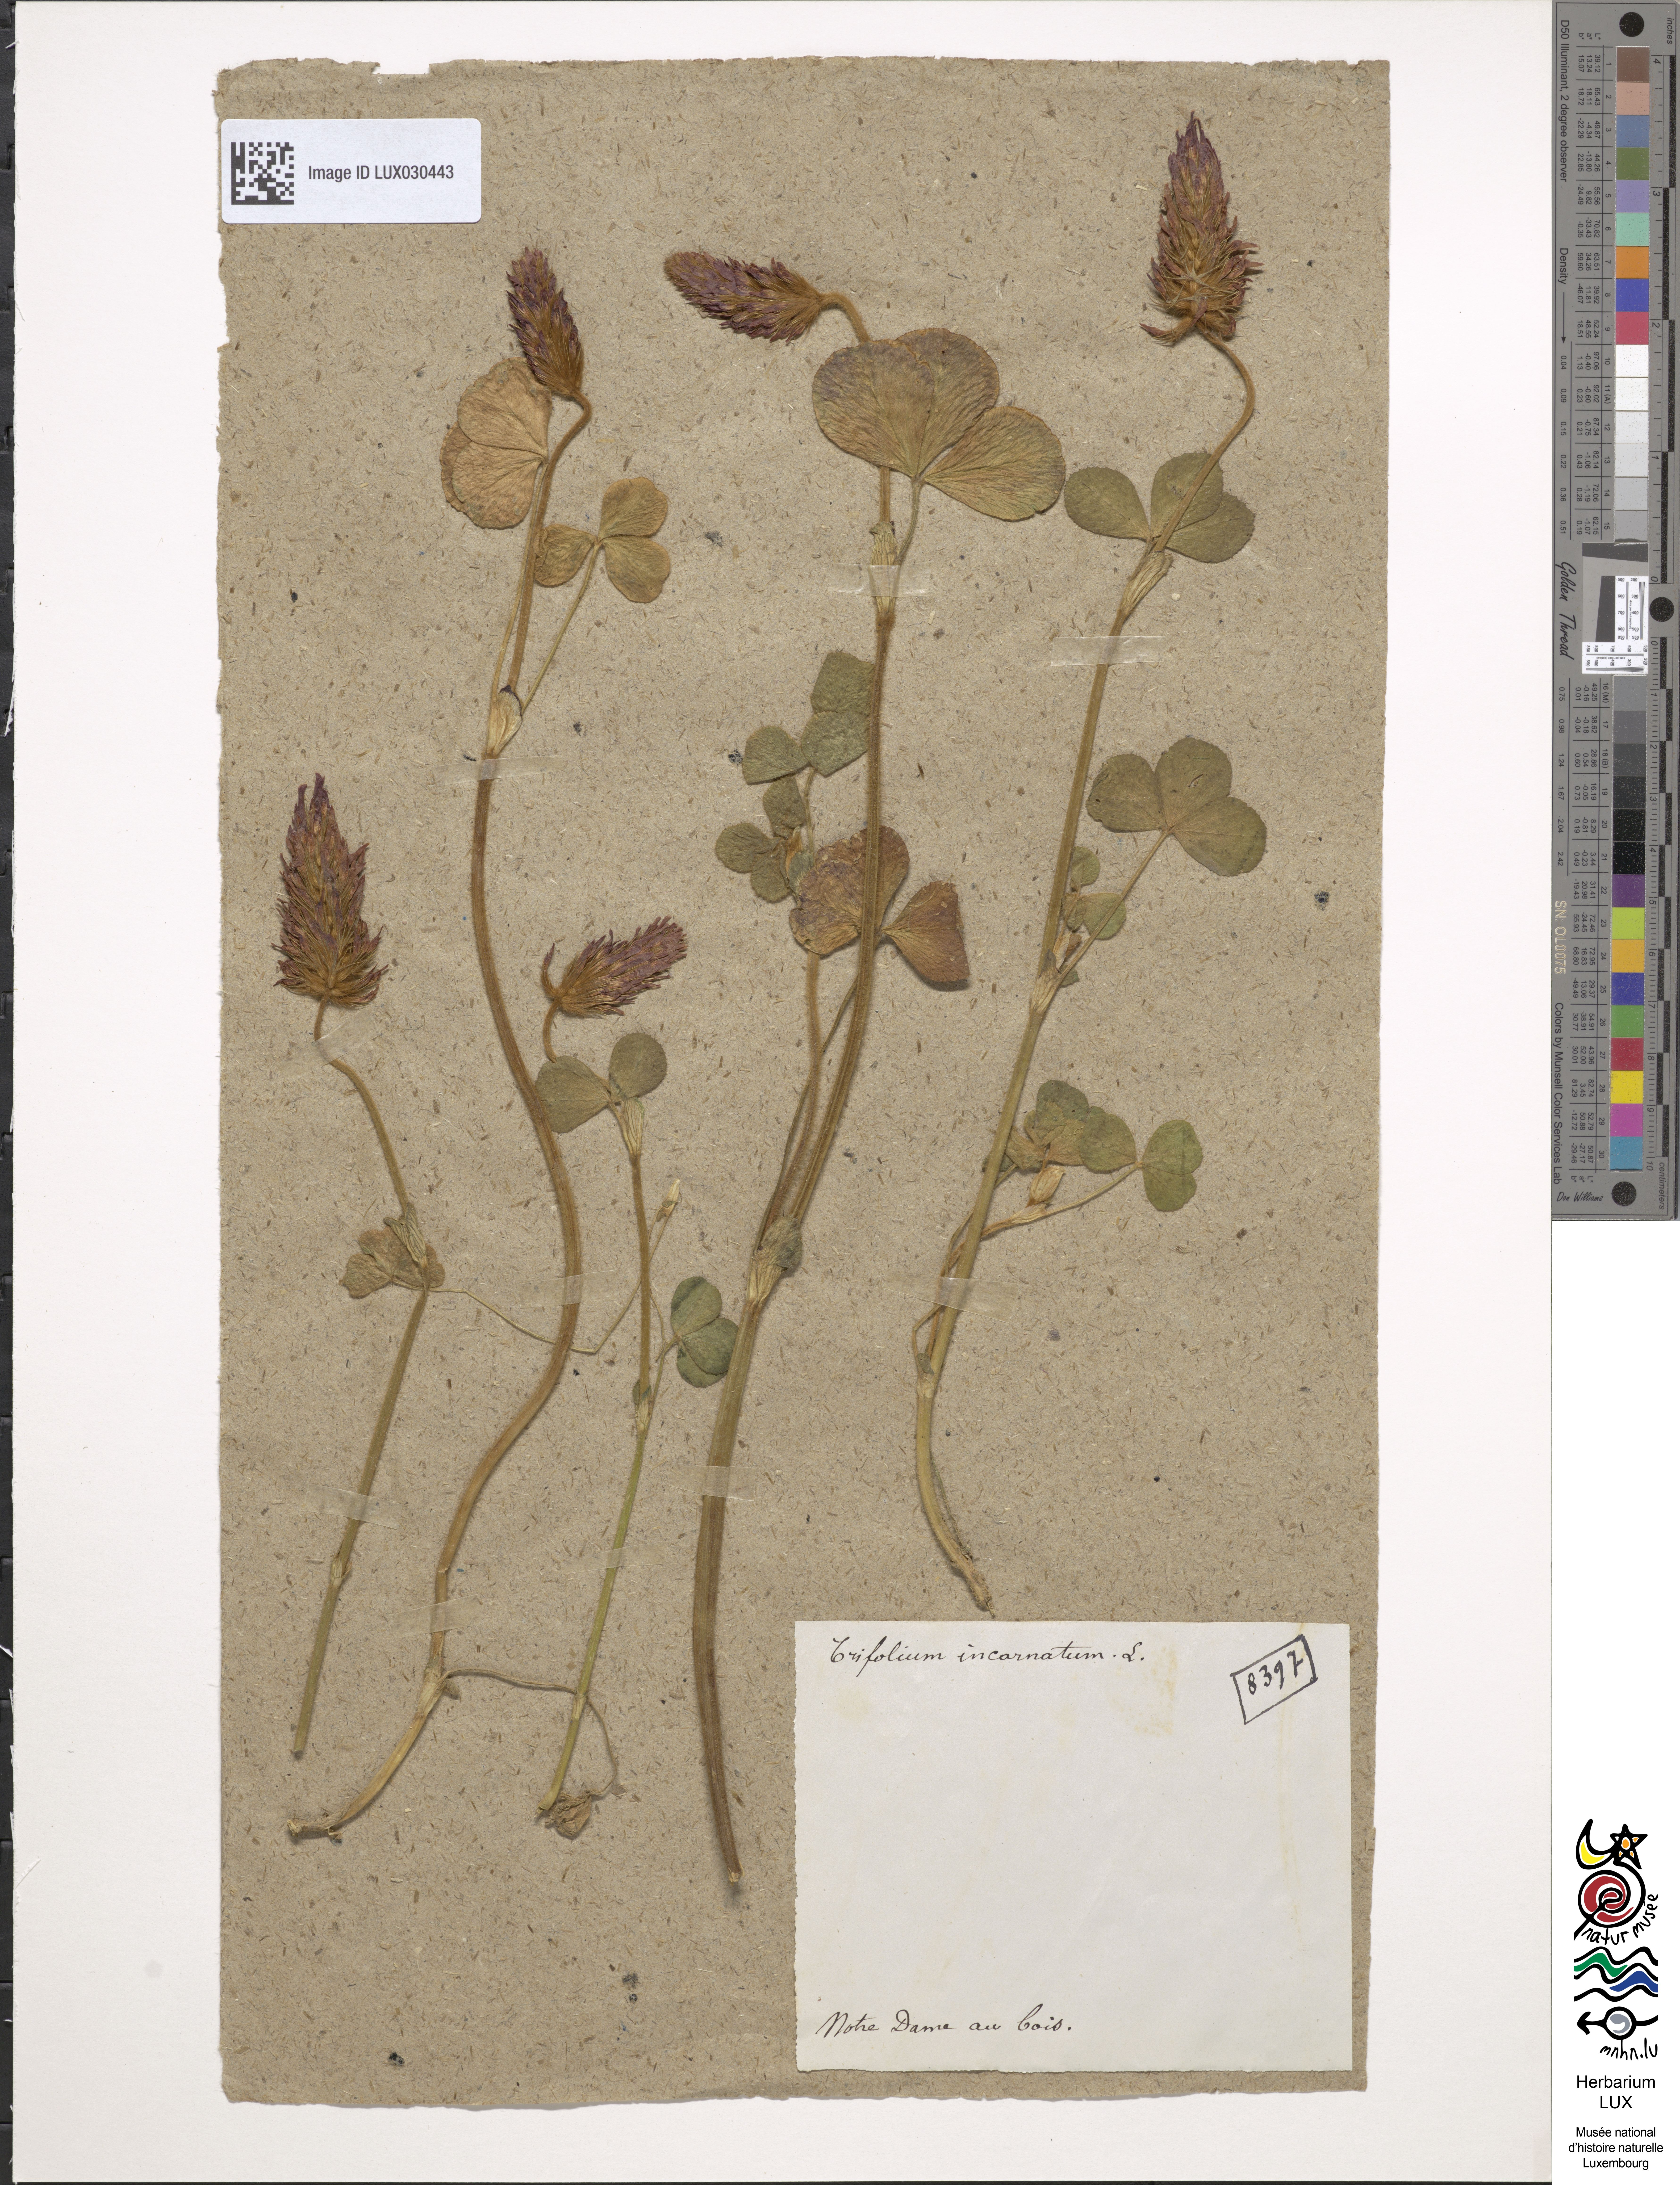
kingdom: Plantae
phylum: Tracheophyta
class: Magnoliopsida
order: Fabales
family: Fabaceae
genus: Trifolium
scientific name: Trifolium incarnatum
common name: Crimson clover
